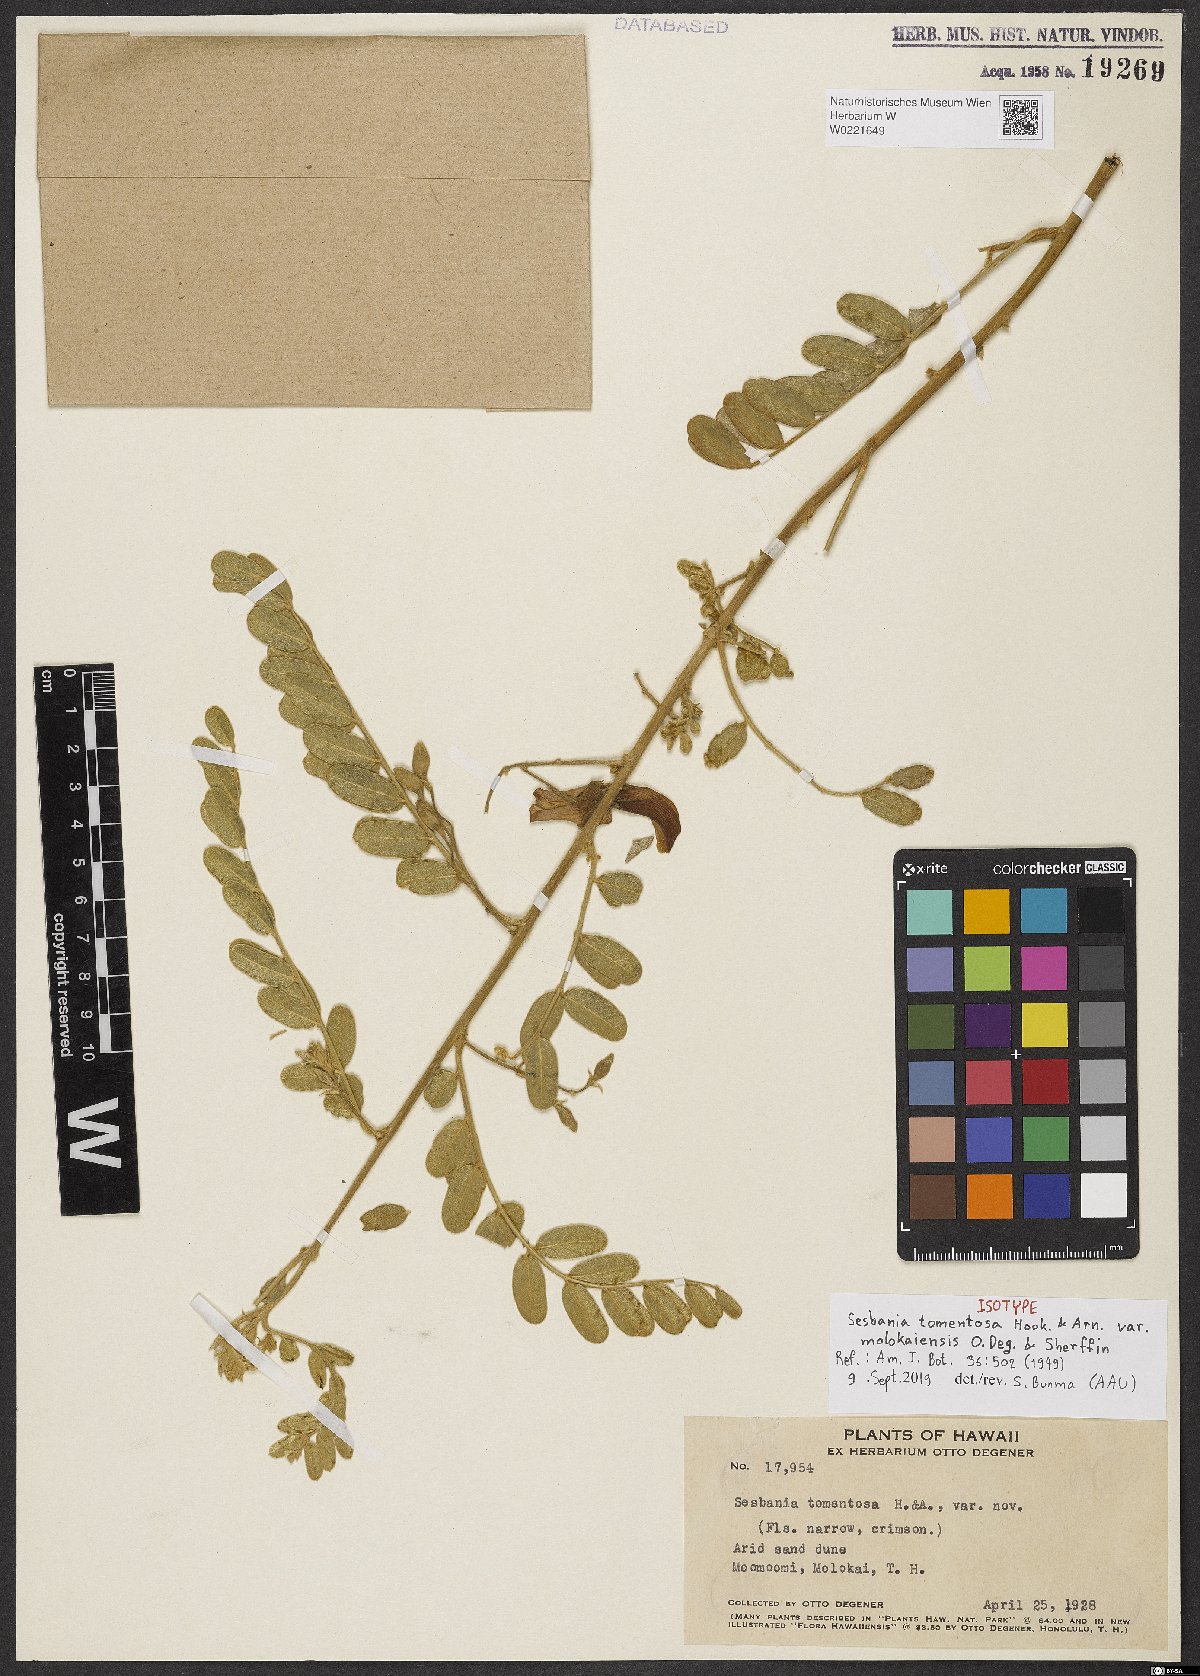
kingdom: Plantae
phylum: Tracheophyta
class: Magnoliopsida
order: Fabales
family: Fabaceae
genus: Sesbania
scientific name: Sesbania tomentosa
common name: `ohai
